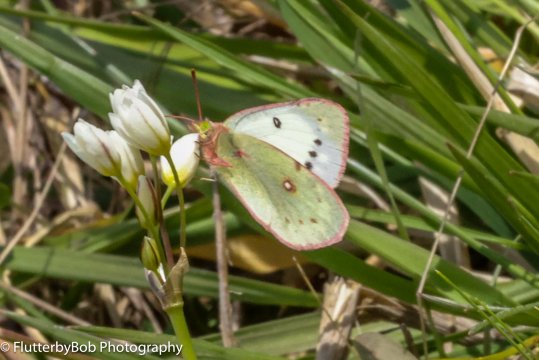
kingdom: Animalia
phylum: Arthropoda
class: Insecta
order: Lepidoptera
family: Pieridae
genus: Colias
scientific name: Colias eurytheme
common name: Orange Sulphur
